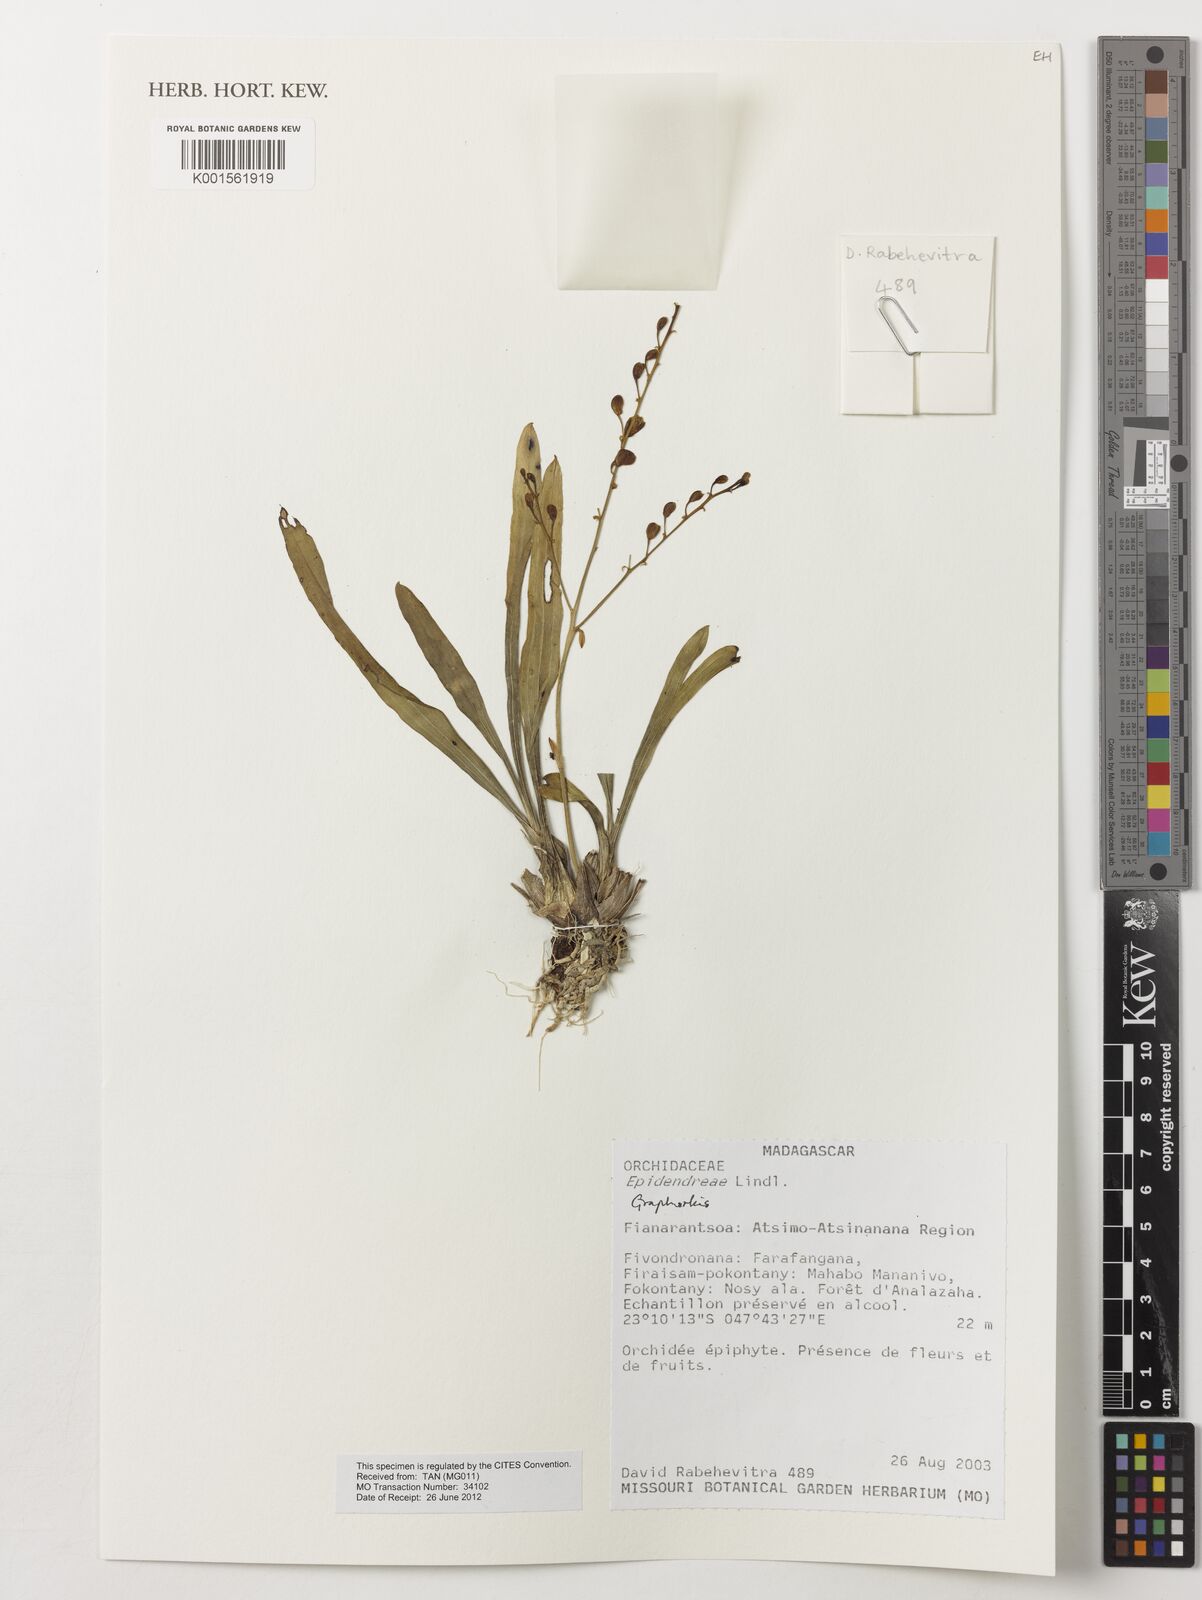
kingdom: Plantae
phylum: Tracheophyta
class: Liliopsida
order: Asparagales
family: Orchidaceae
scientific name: Orchidaceae
